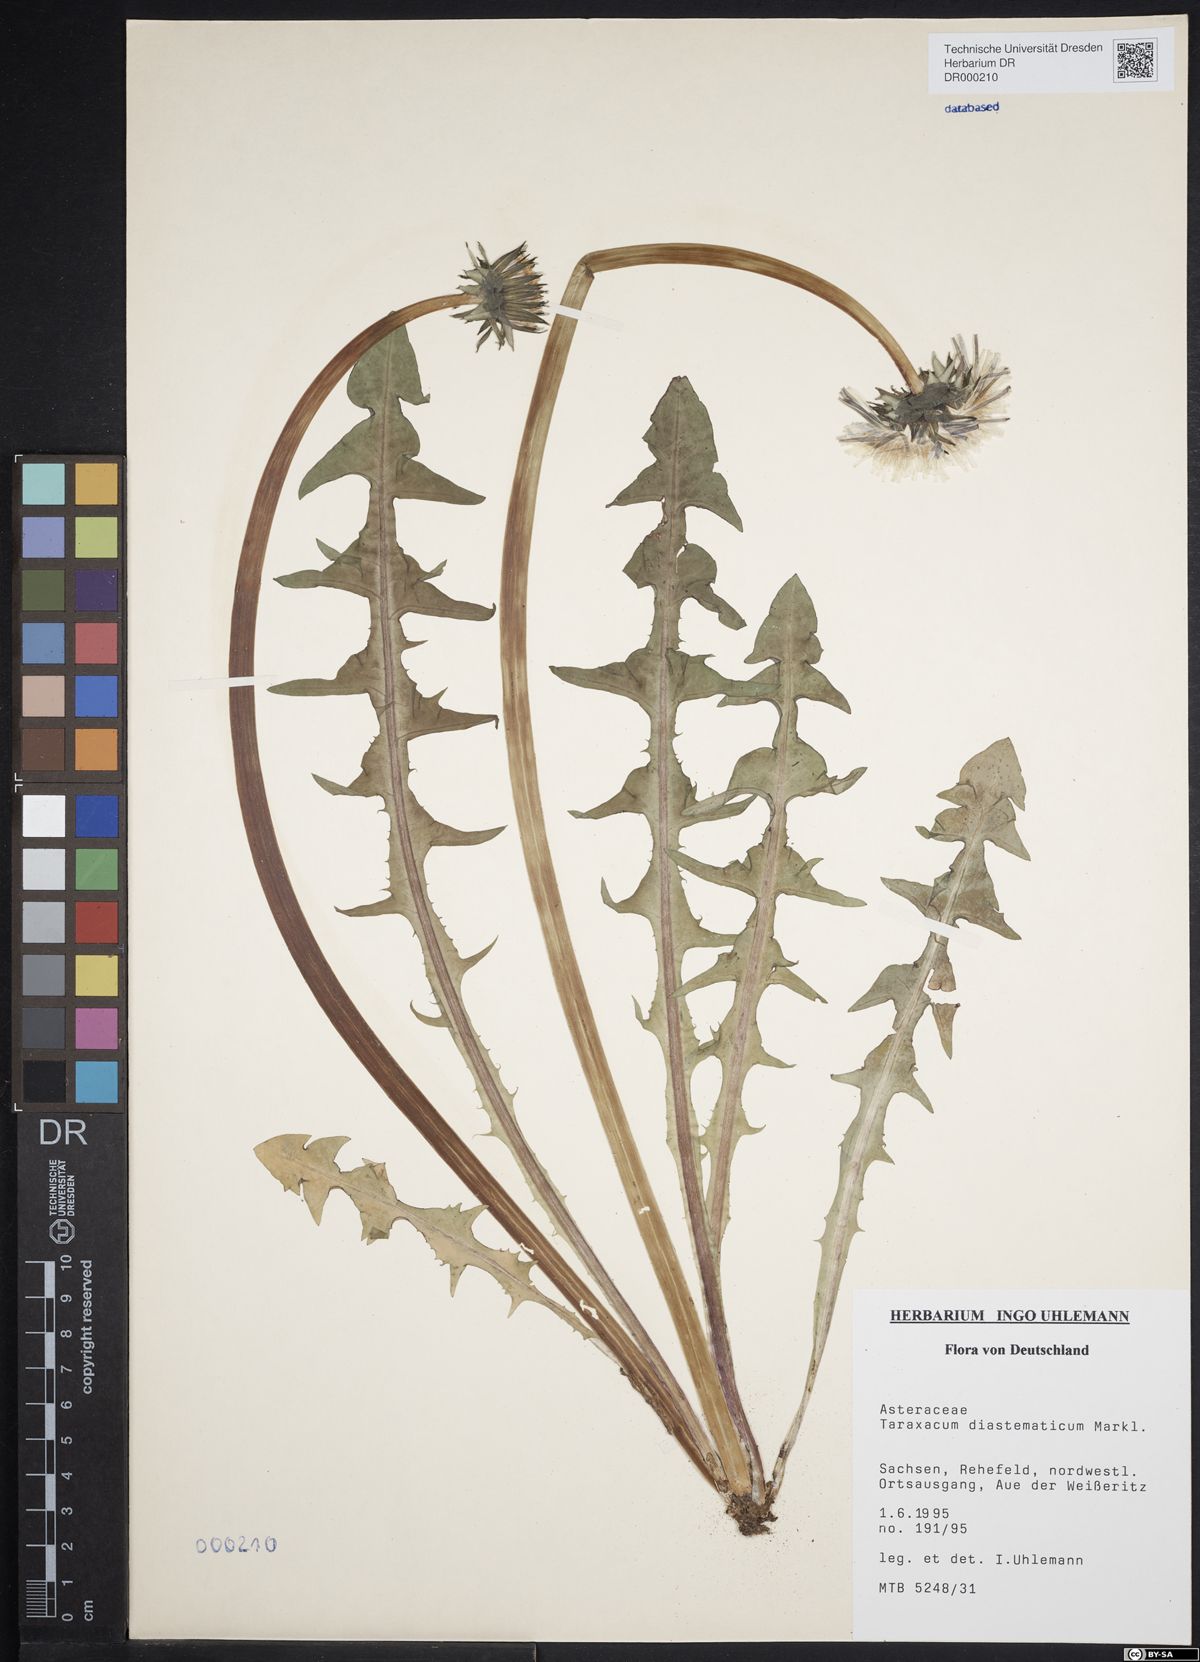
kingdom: Plantae
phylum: Tracheophyta
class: Magnoliopsida
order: Asterales
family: Asteraceae
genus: Taraxacum
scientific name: Taraxacum diastematicum
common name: Bulbous-lobed dandelion
